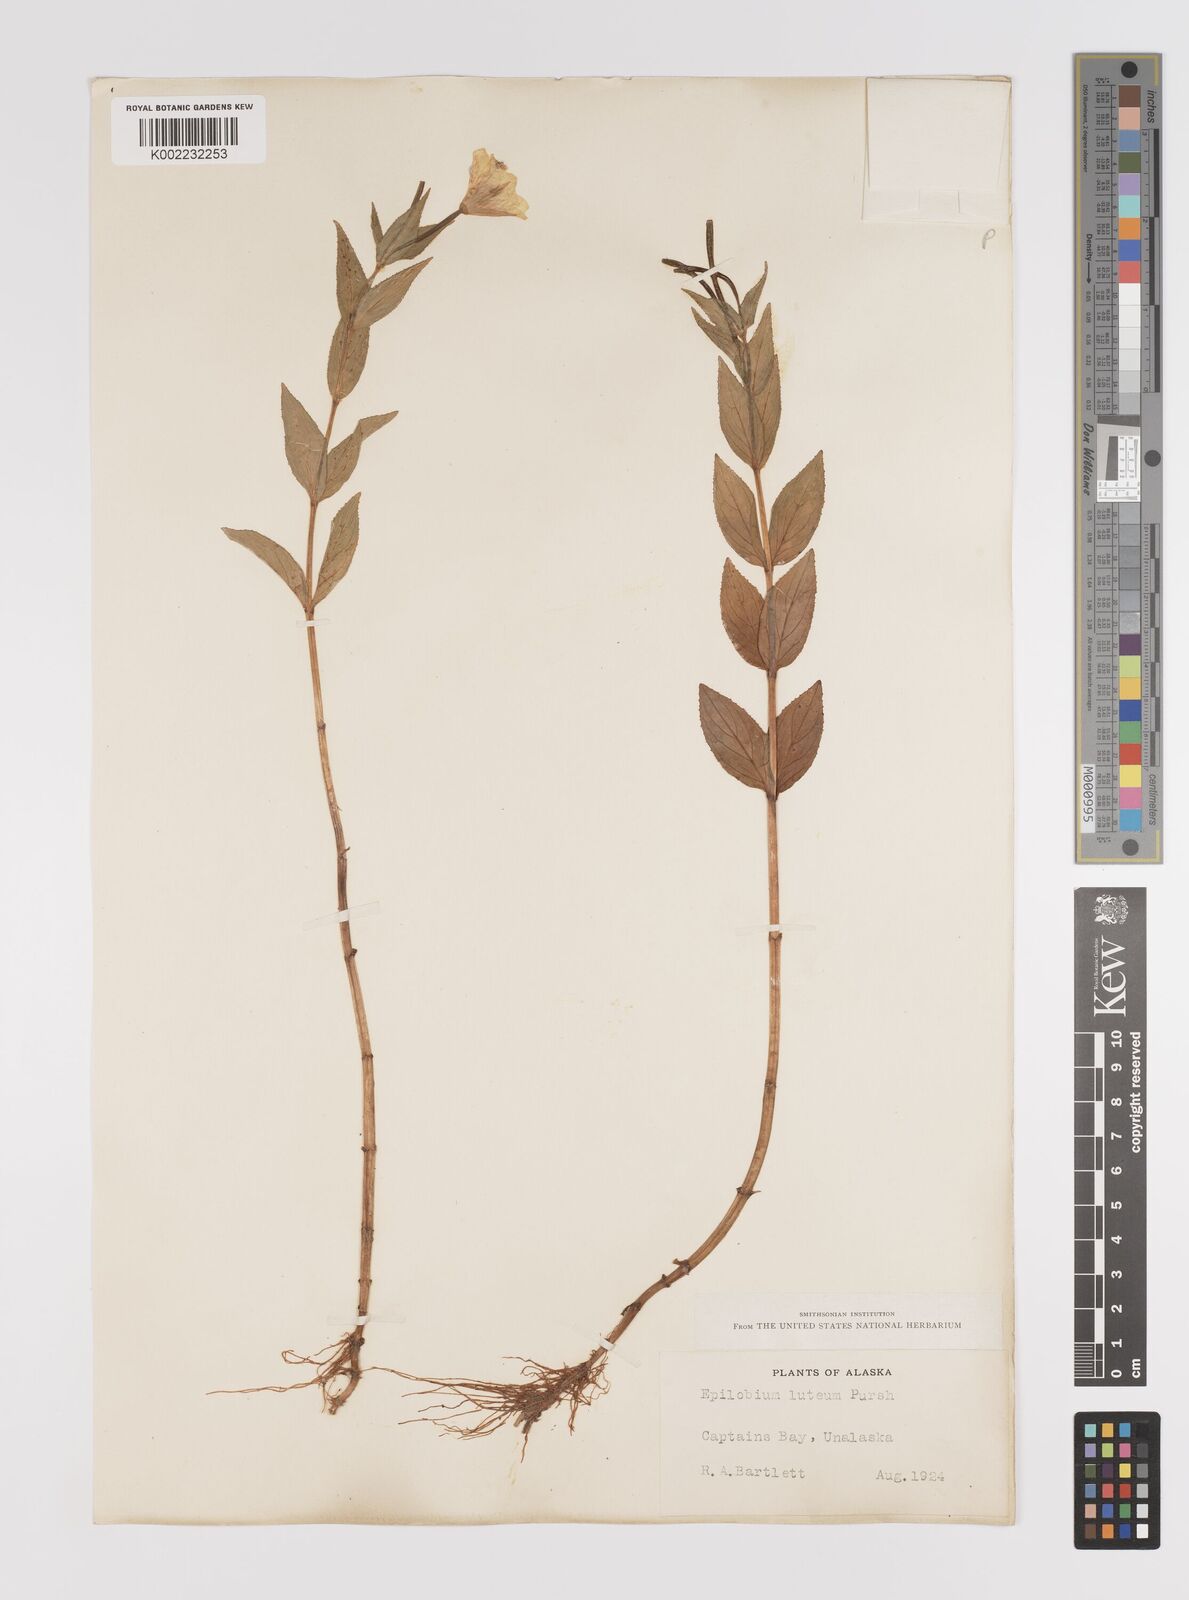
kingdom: Plantae
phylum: Tracheophyta
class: Magnoliopsida
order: Myrtales
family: Onagraceae
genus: Epilobium
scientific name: Epilobium luteum
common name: Yellow willowherb
